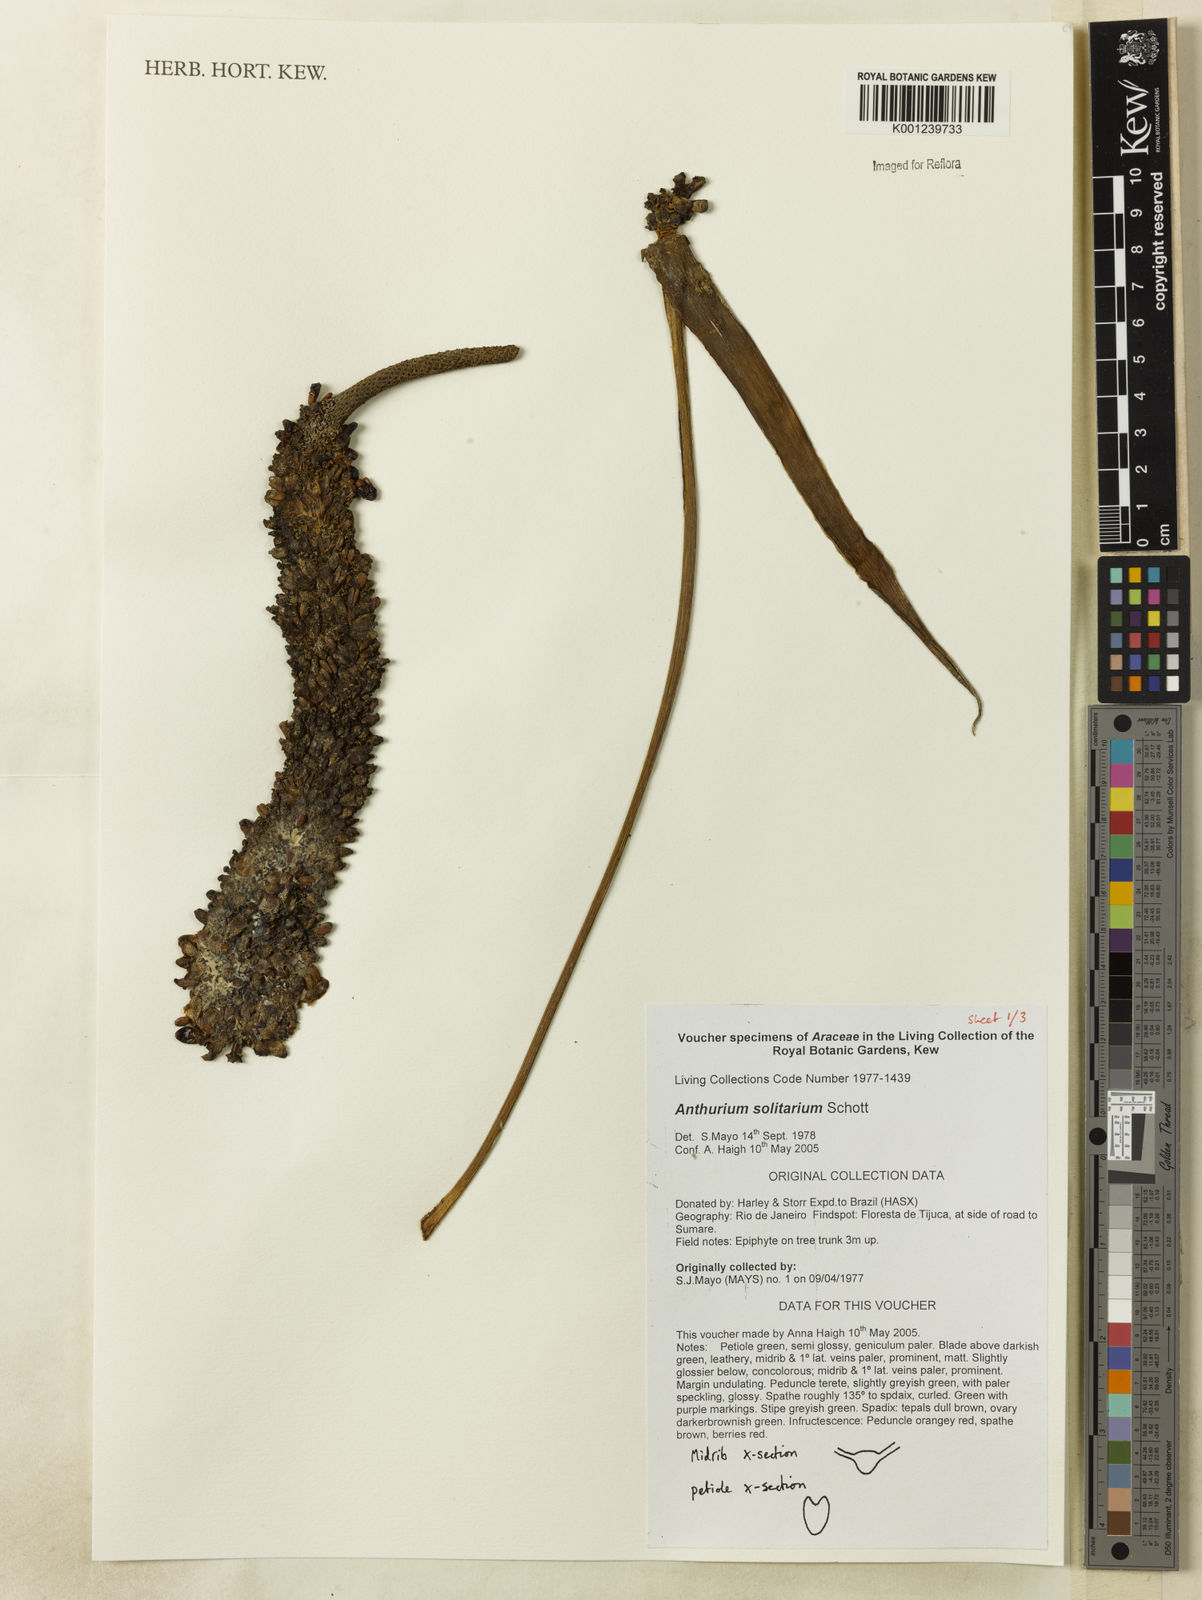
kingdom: Plantae
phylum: Tracheophyta
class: Liliopsida
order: Alismatales
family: Araceae
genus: Anthurium
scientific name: Anthurium solitarium
